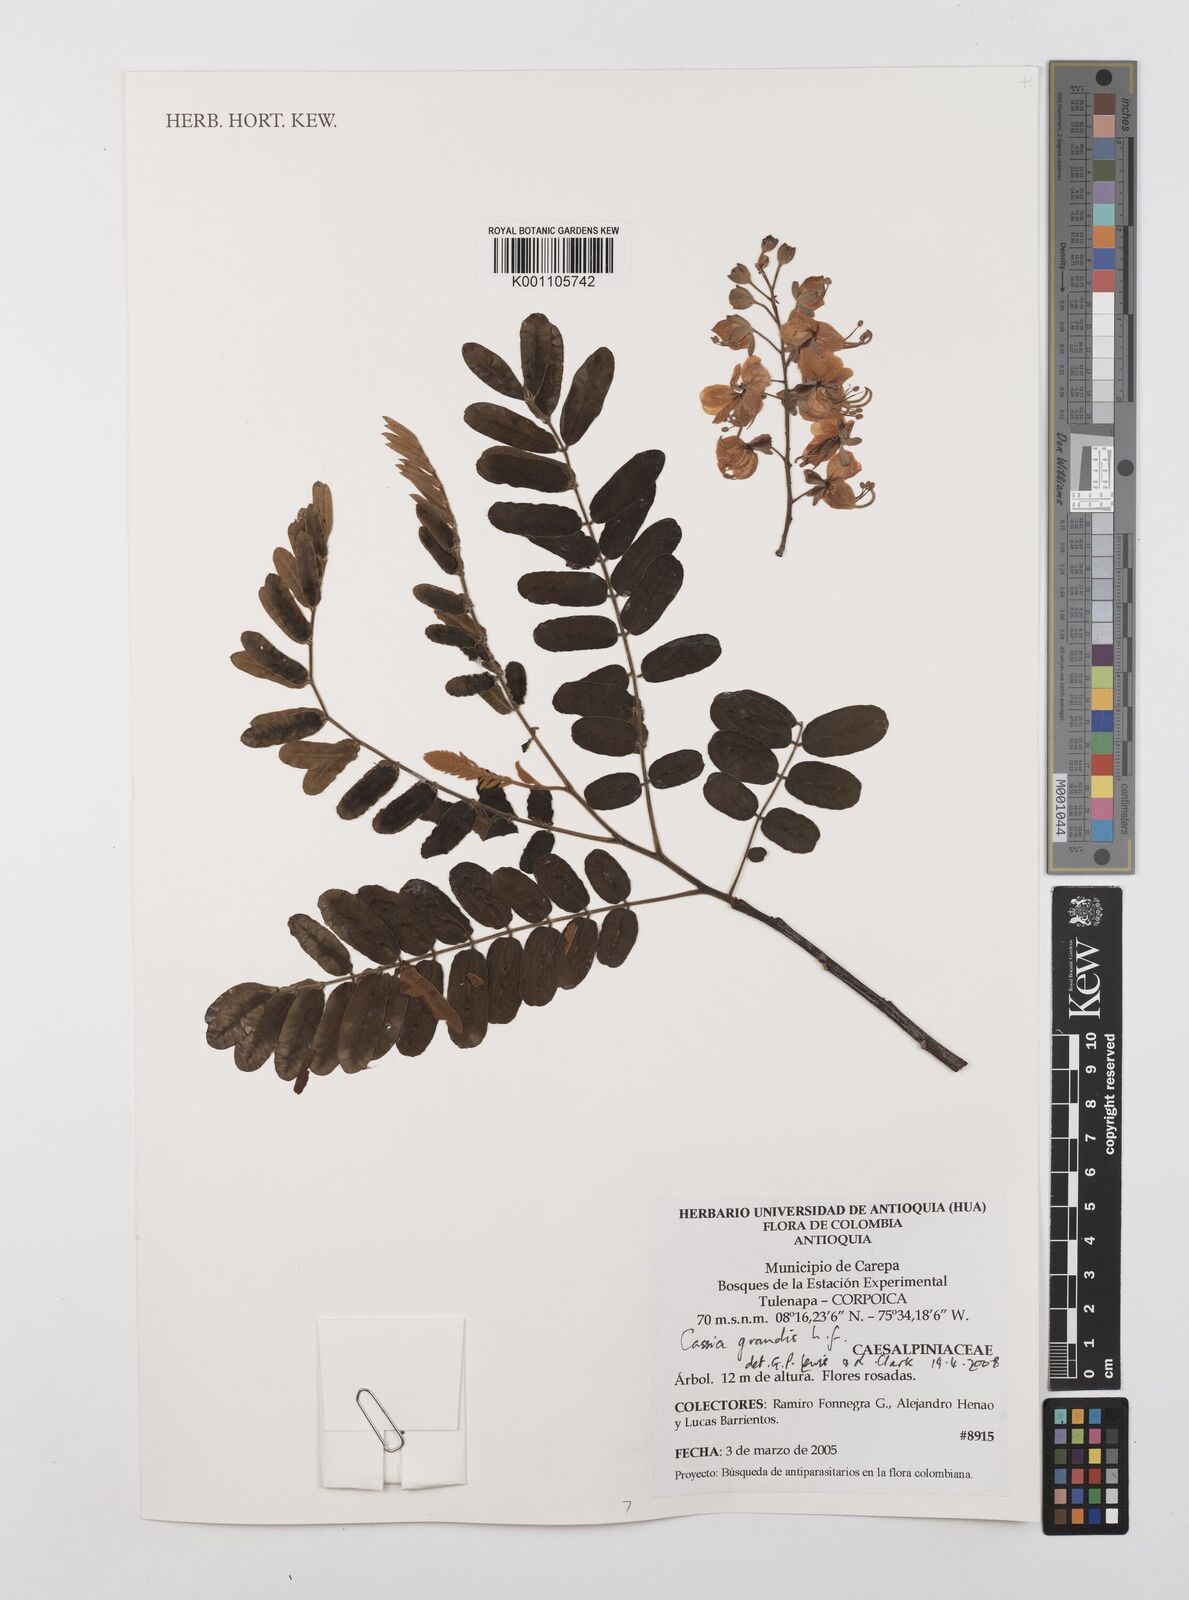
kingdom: Plantae
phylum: Tracheophyta
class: Magnoliopsida
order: Fabales
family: Fabaceae
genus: Cassia
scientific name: Cassia grandis
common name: Appleblossom cassia
